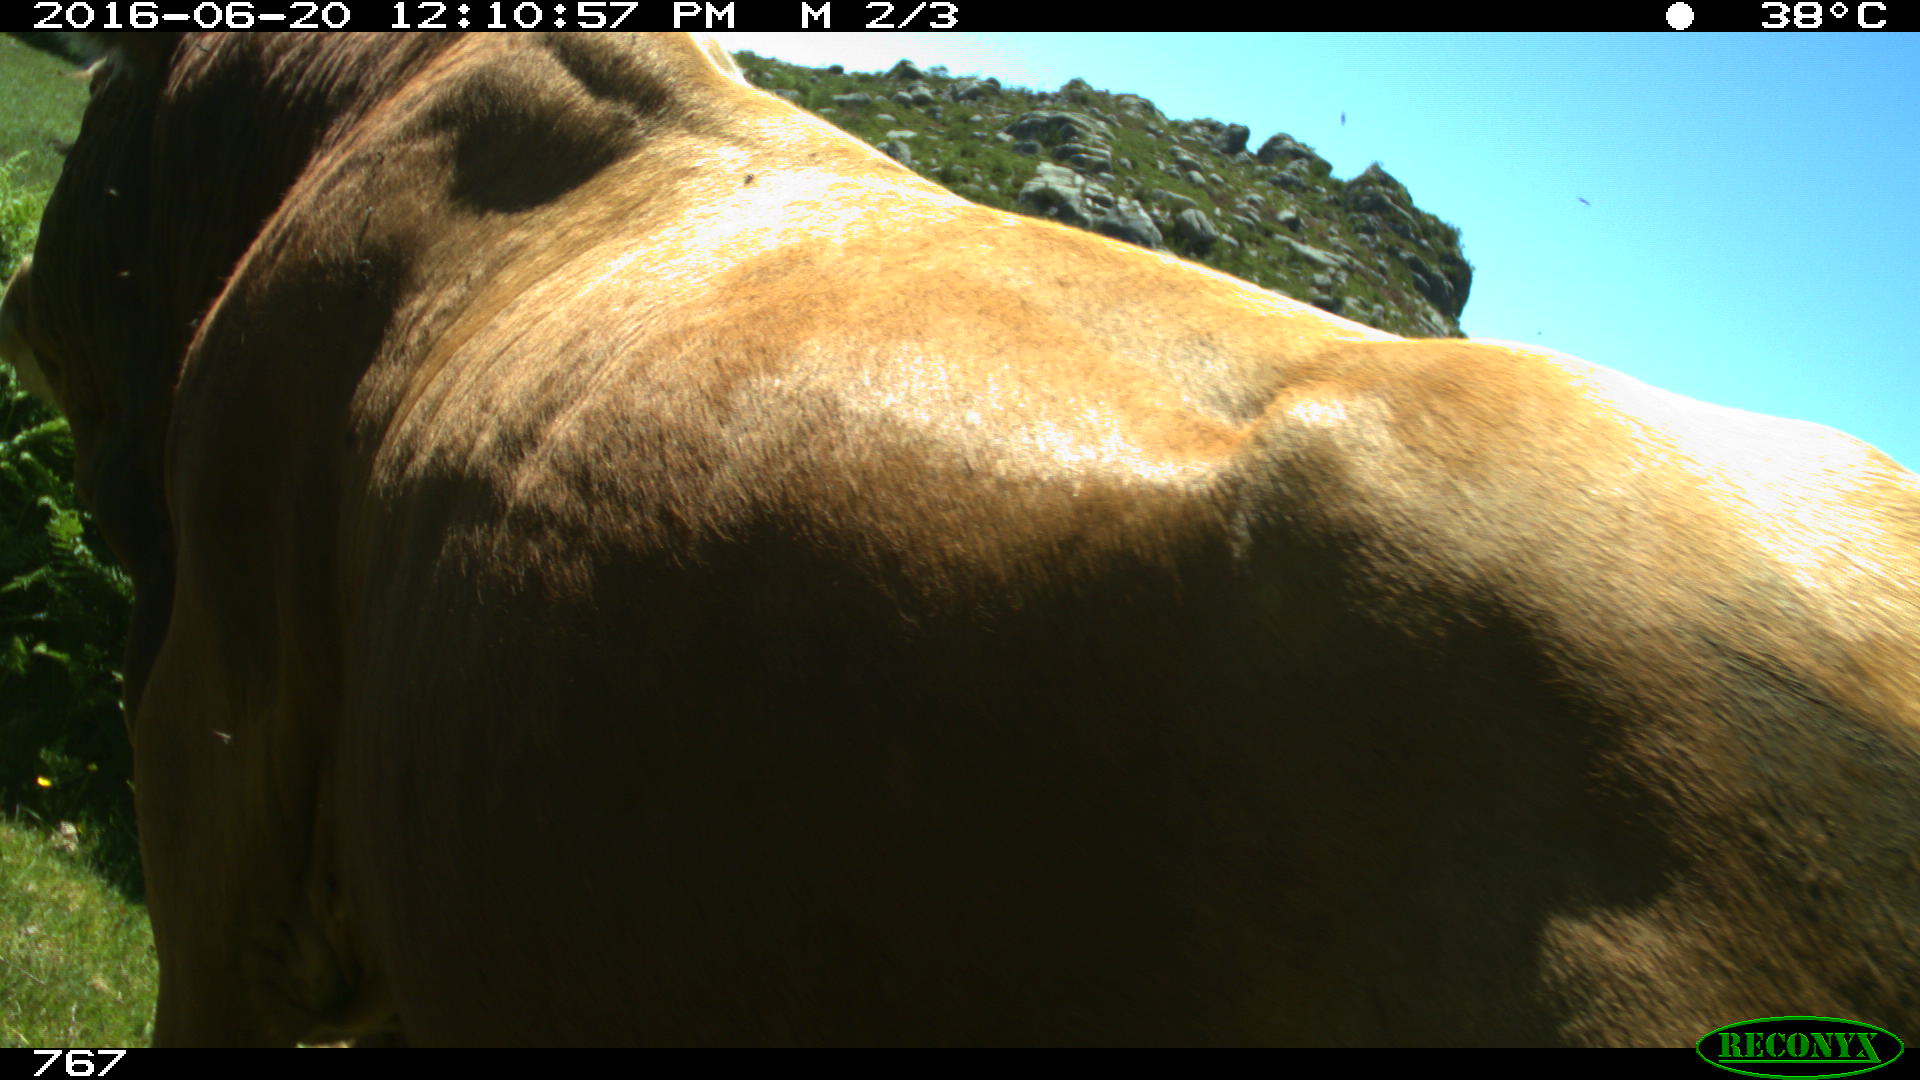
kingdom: Animalia
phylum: Chordata
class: Mammalia
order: Artiodactyla
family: Bovidae
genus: Bos
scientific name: Bos taurus
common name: Domesticated cattle
